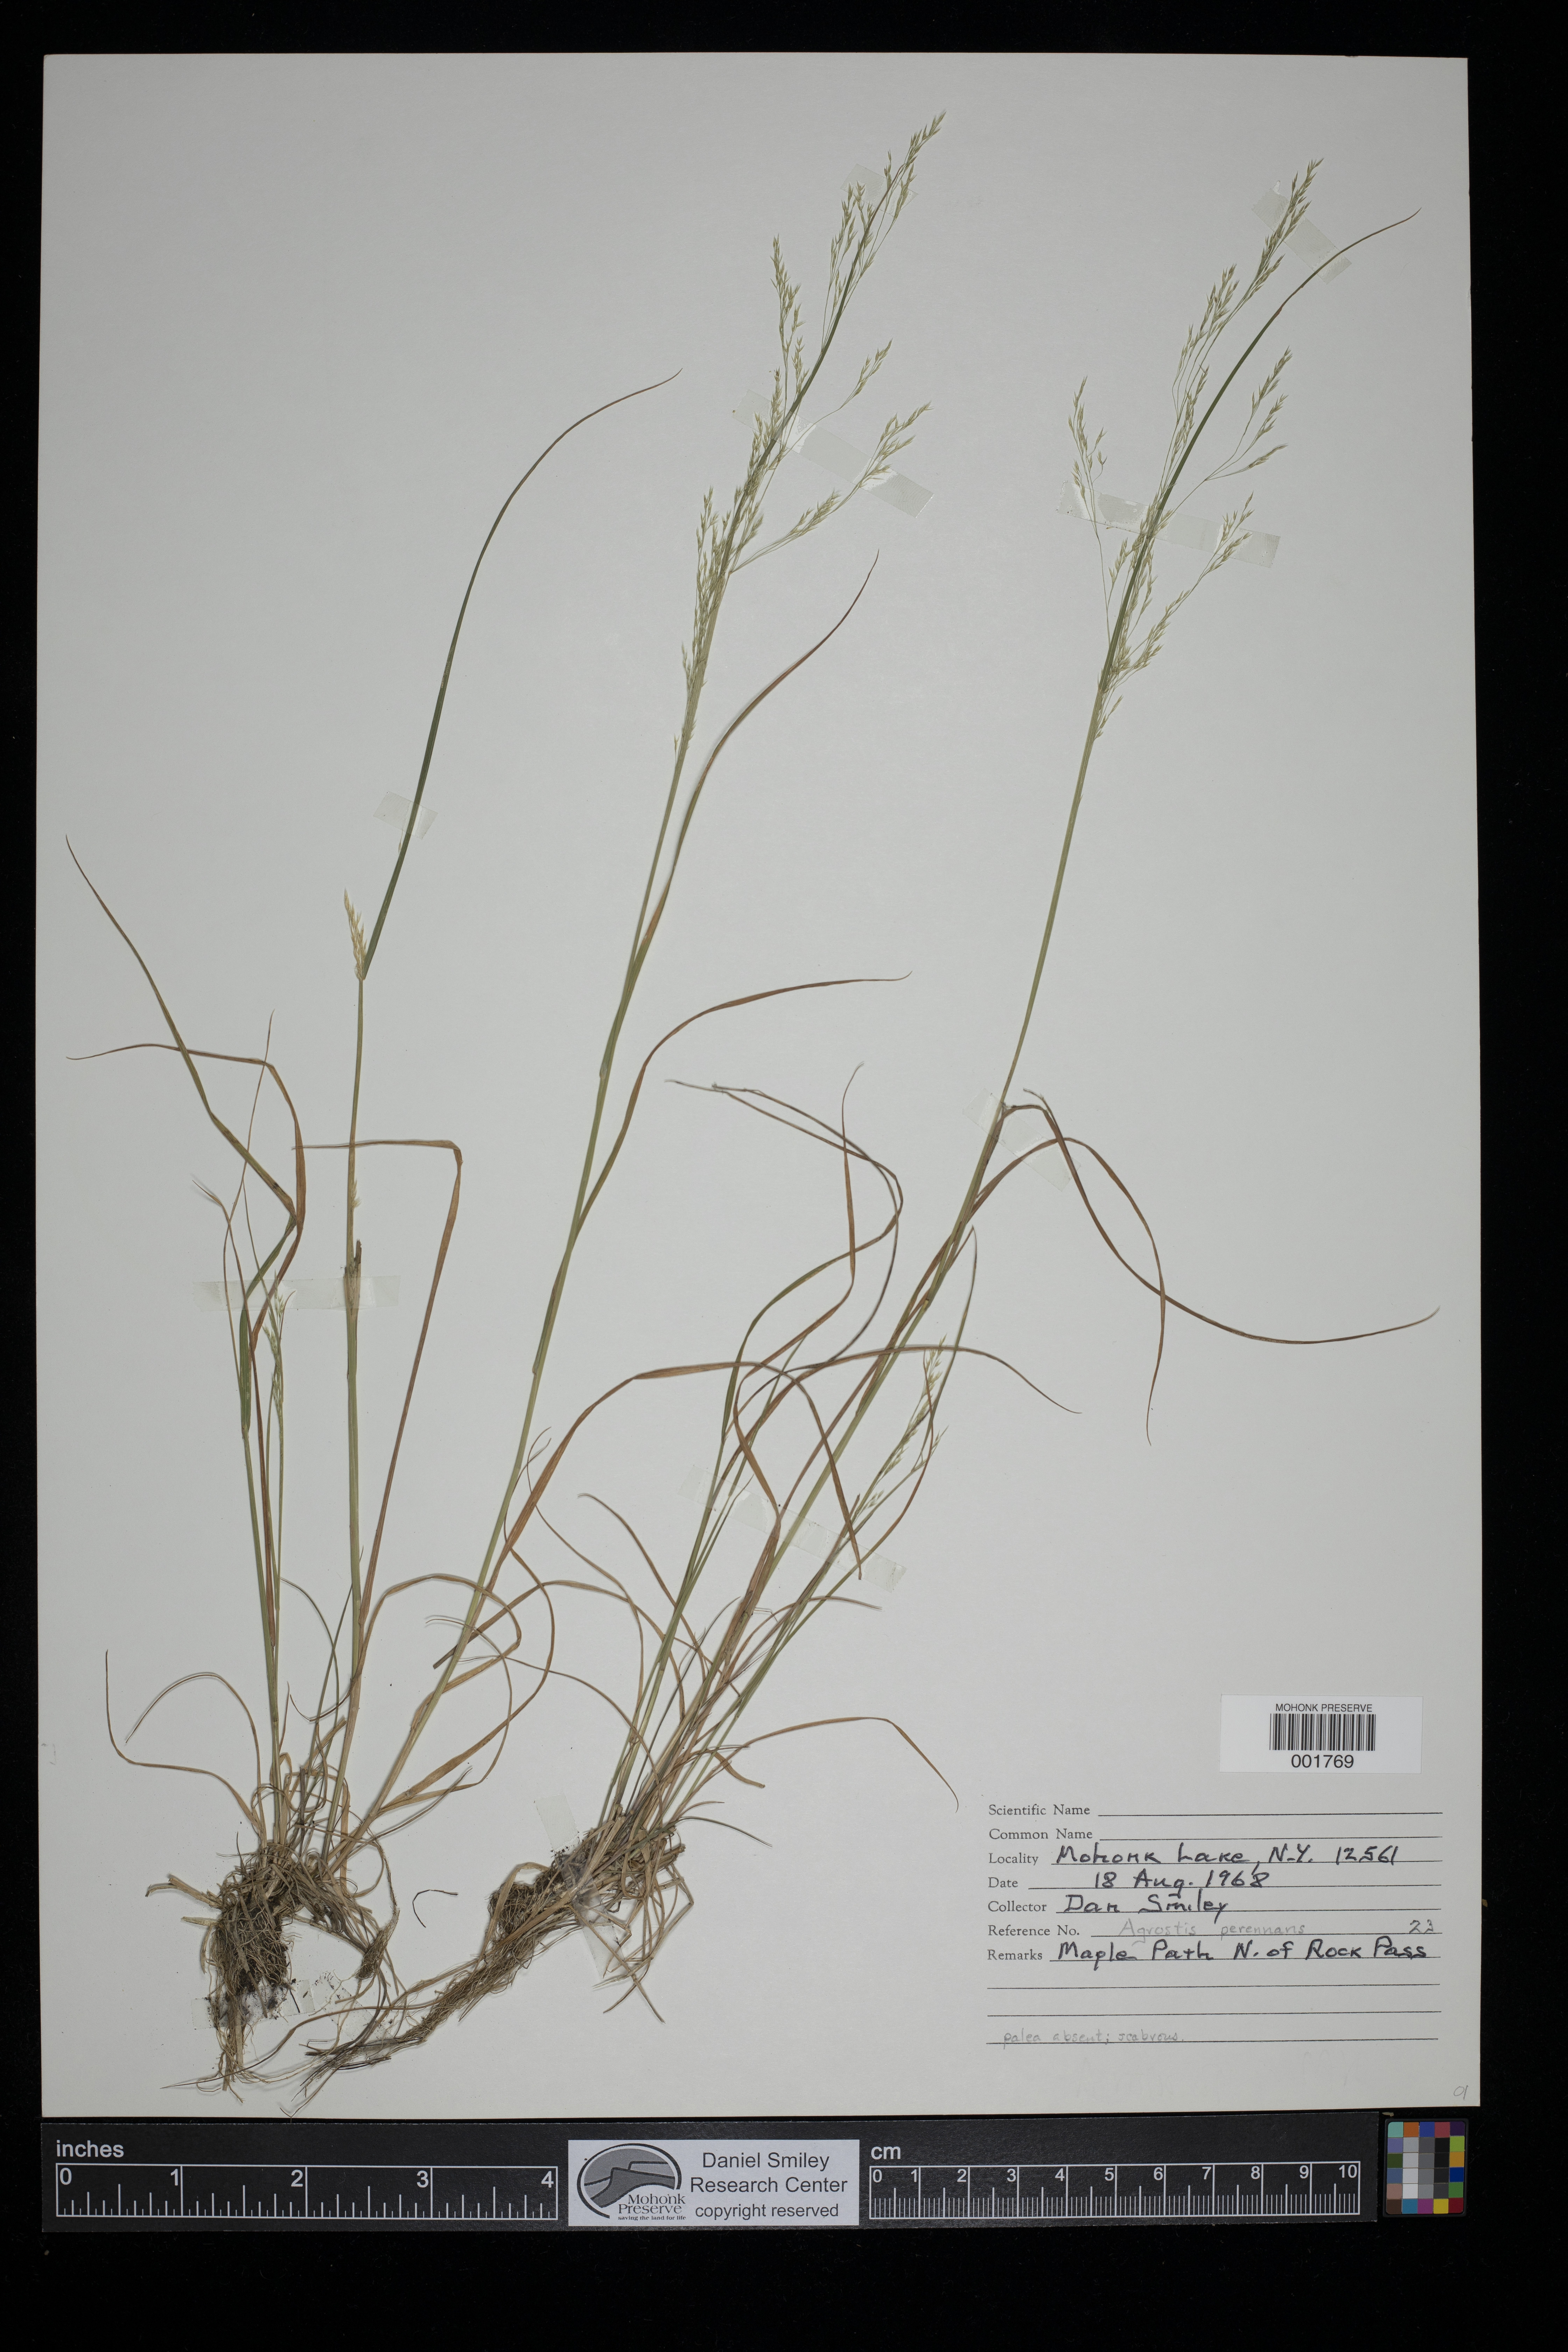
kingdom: Plantae
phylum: Tracheophyta
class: Liliopsida
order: Poales
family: Poaceae
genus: Agrostis
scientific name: Agrostis perennans
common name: Autumn bent
